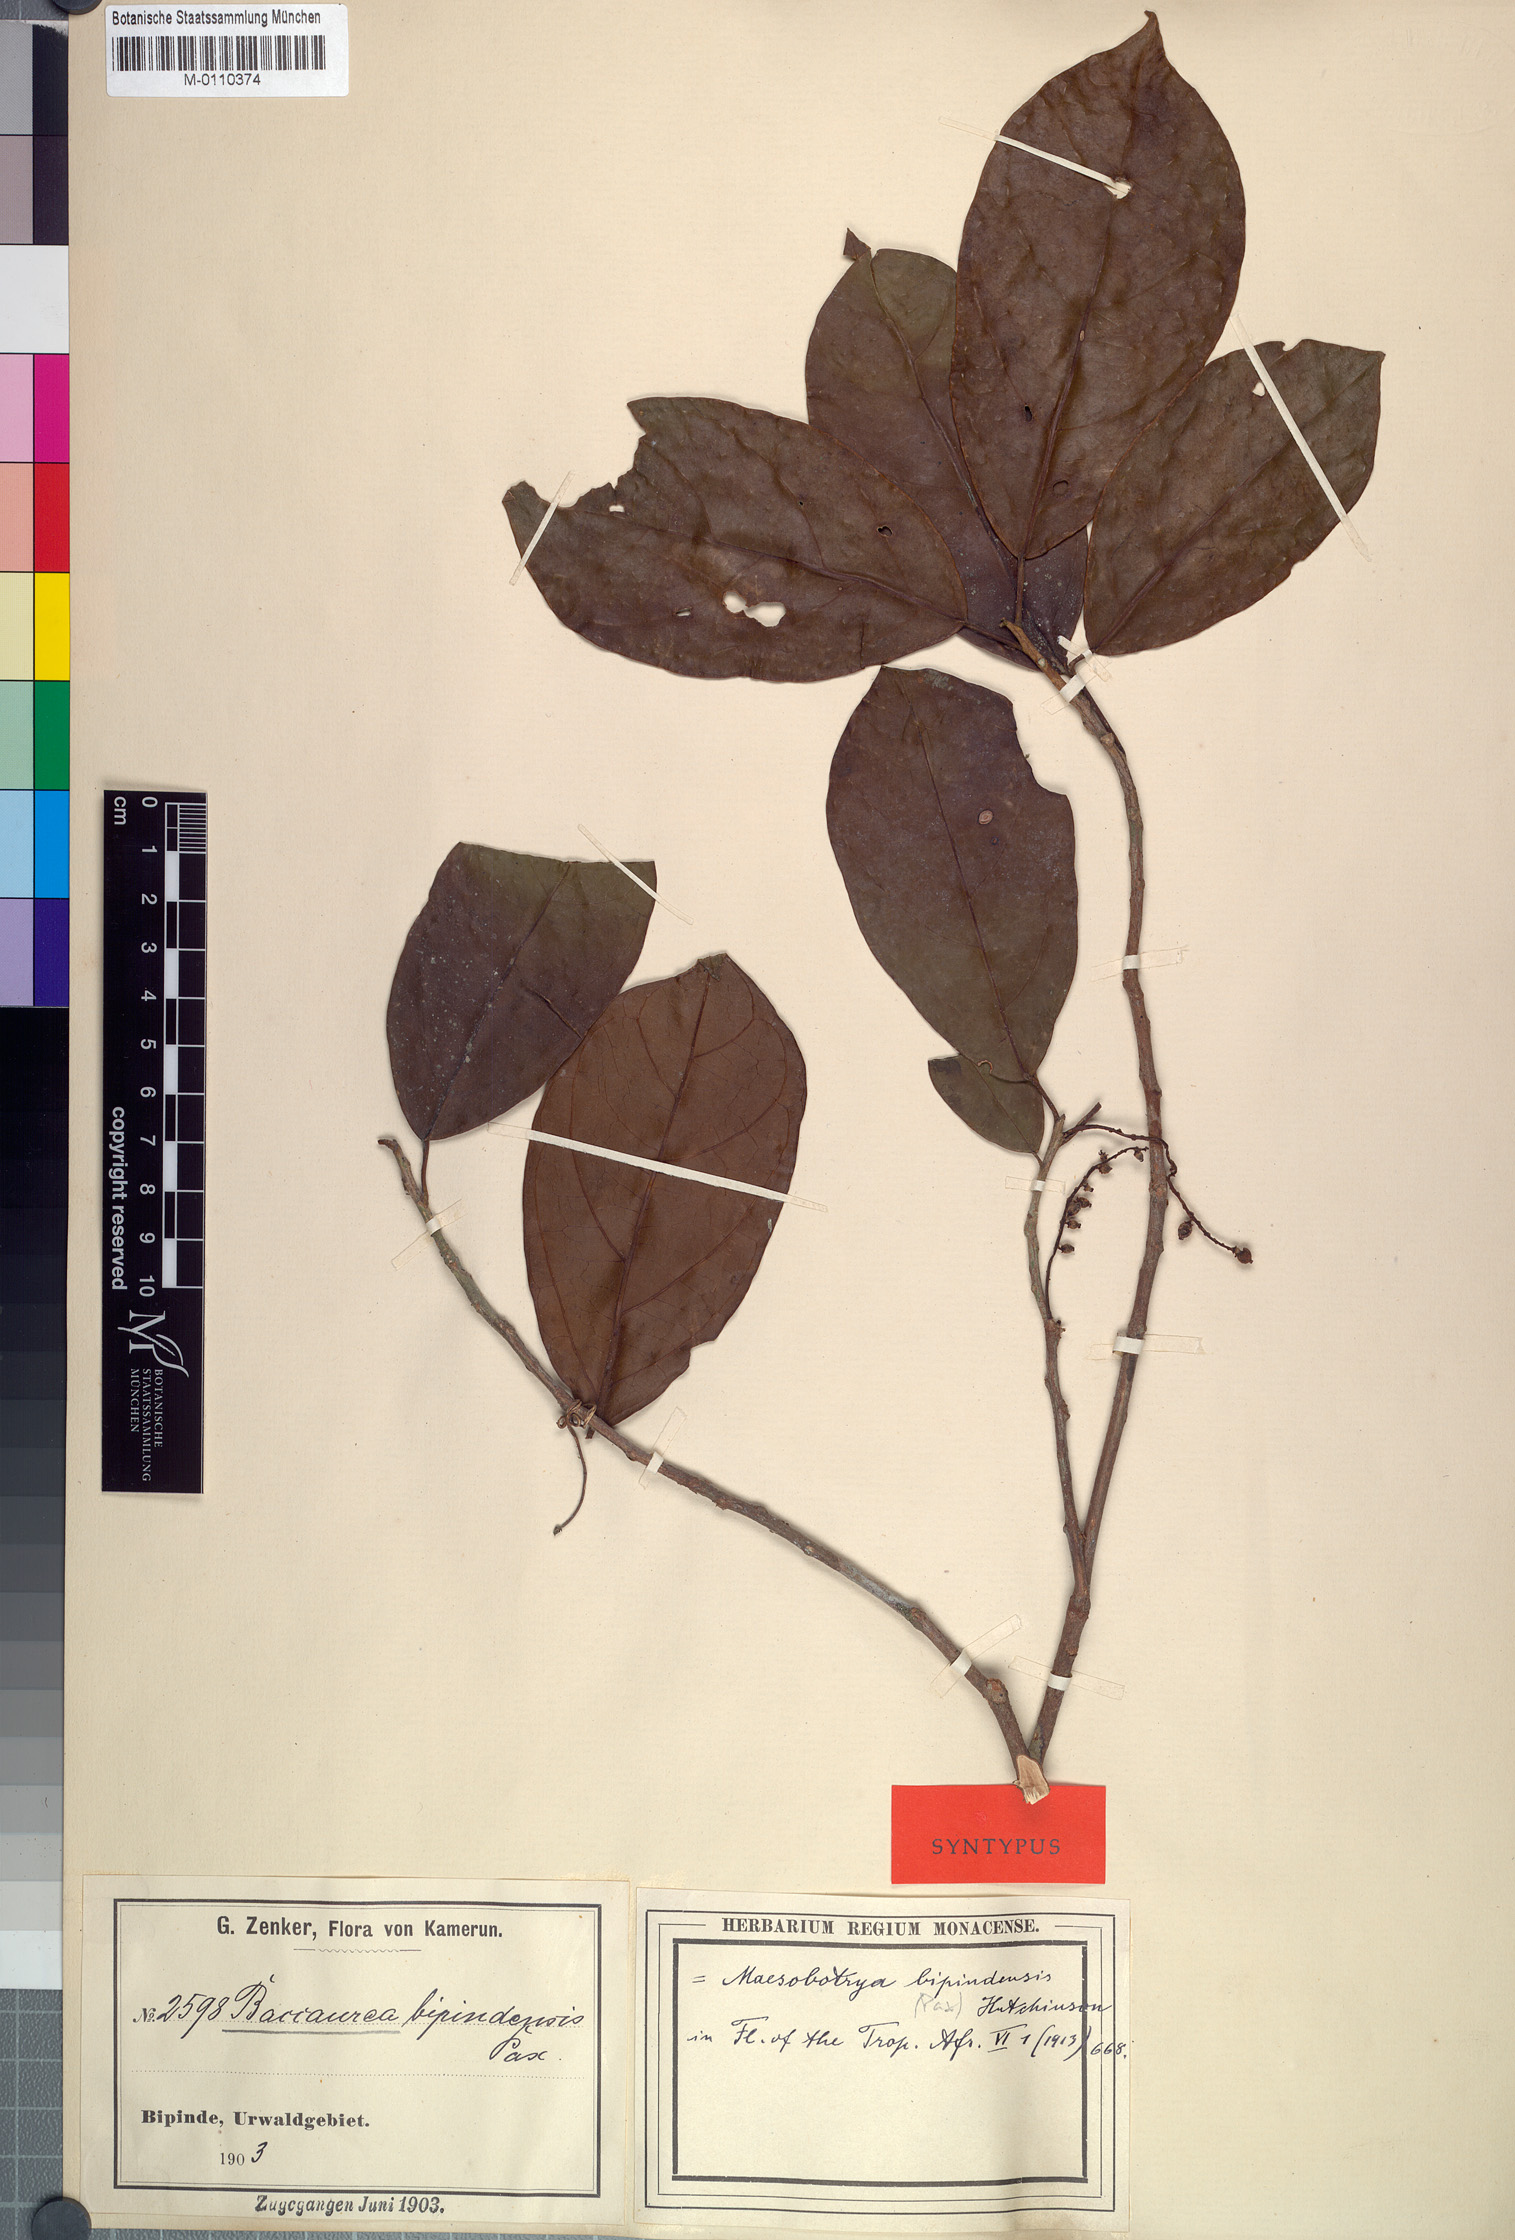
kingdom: Plantae
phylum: Tracheophyta
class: Magnoliopsida
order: Malpighiales
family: Phyllanthaceae
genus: Maesobotrya
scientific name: Maesobotrya griffoniana
